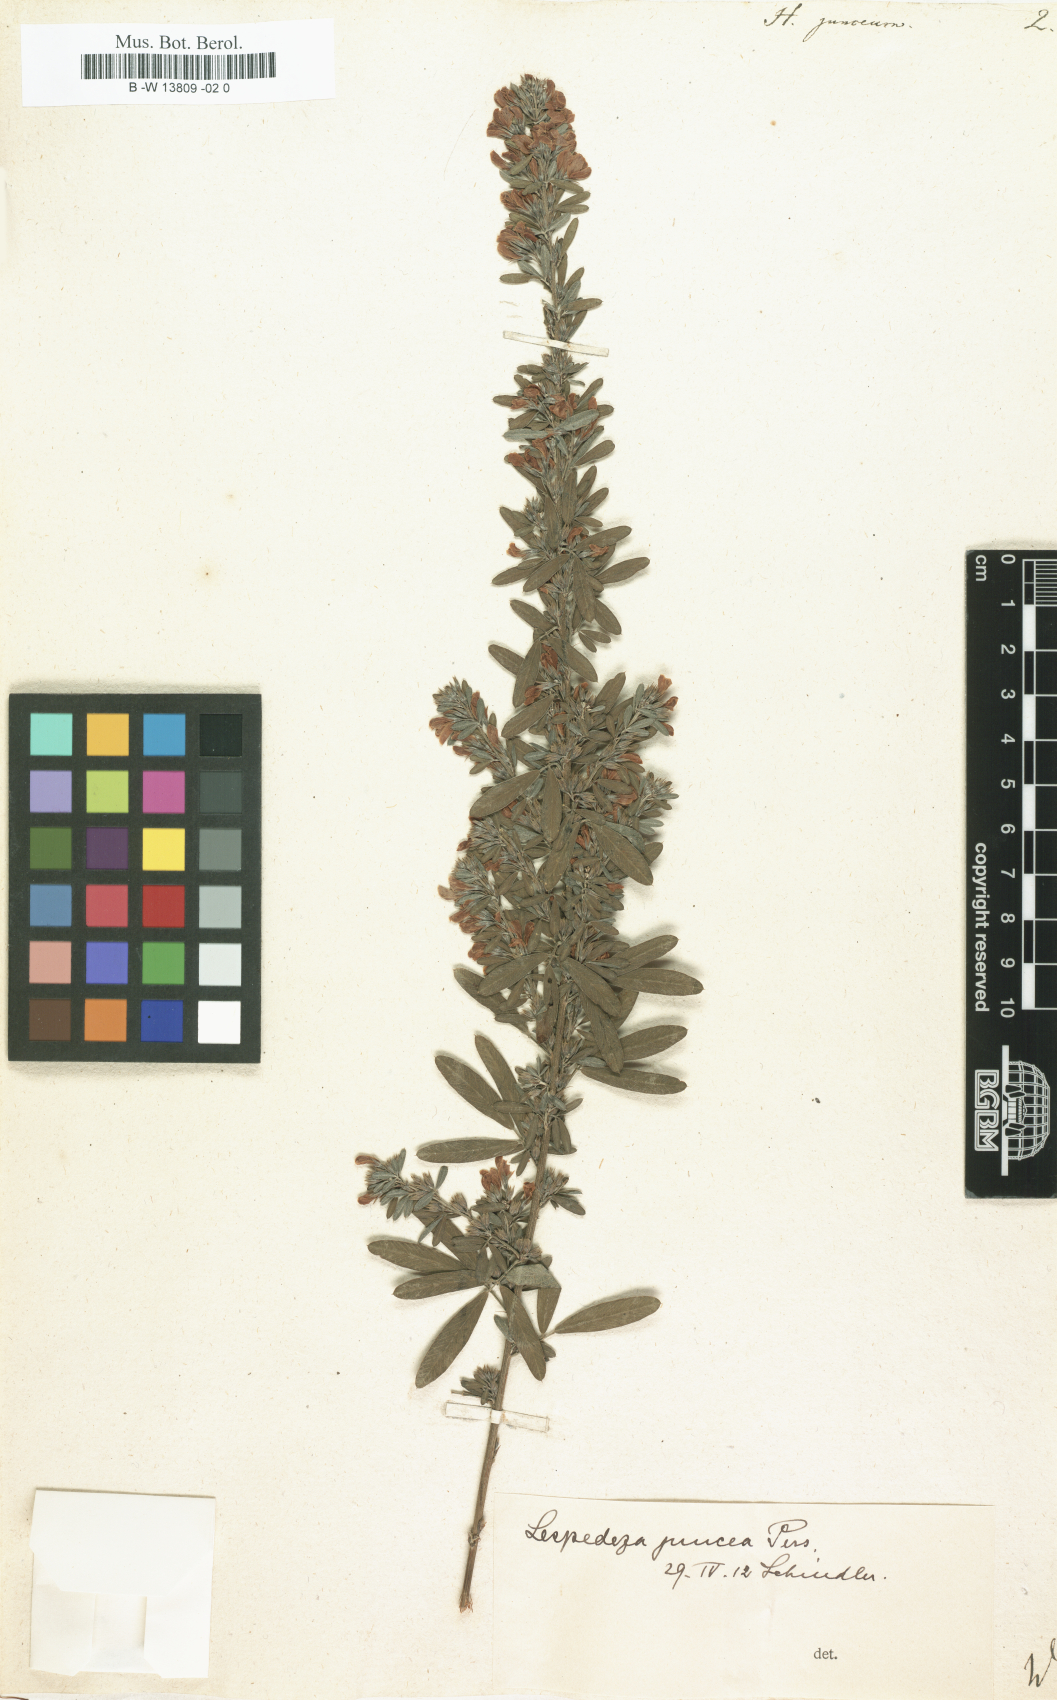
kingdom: Plantae
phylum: Tracheophyta
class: Magnoliopsida
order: Fabales
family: Fabaceae
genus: Lespedeza
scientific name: Lespedeza juncea
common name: Siberian lespedeza
